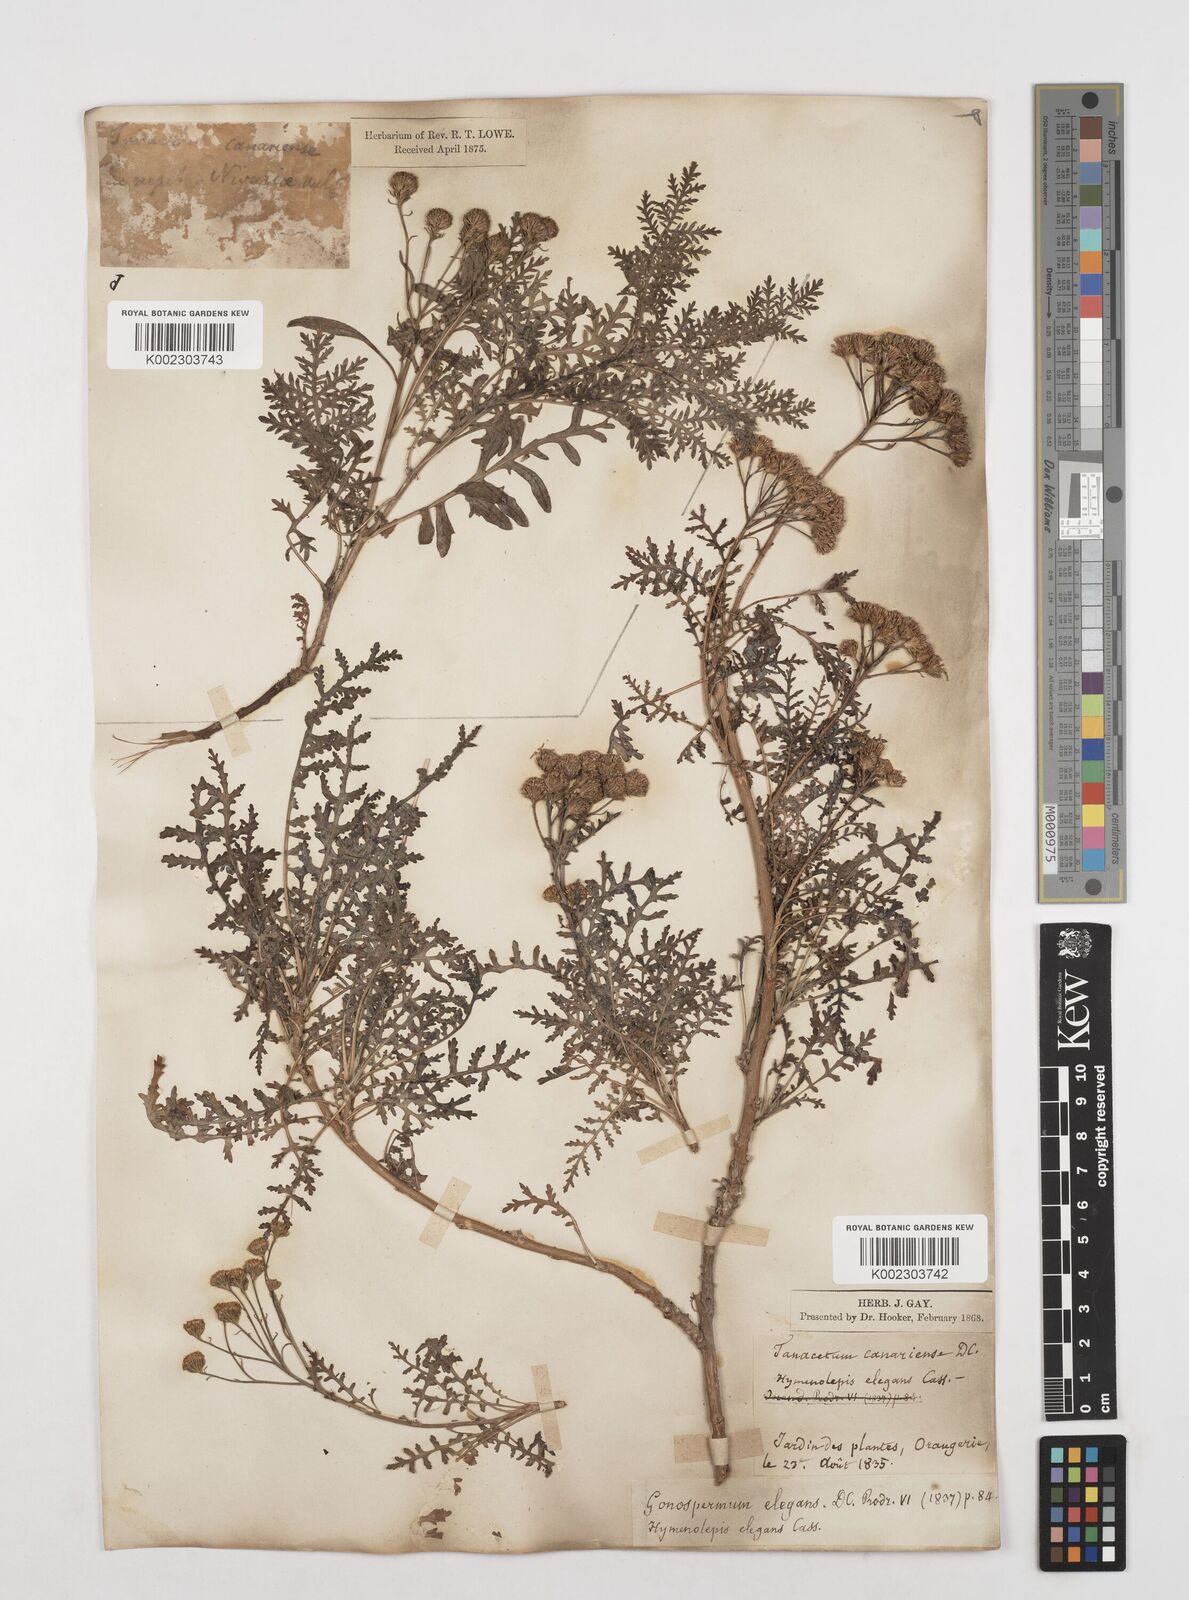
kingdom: Plantae
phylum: Tracheophyta
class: Magnoliopsida
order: Asterales
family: Asteraceae
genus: Gonospermum
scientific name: Gonospermum fruticosum
